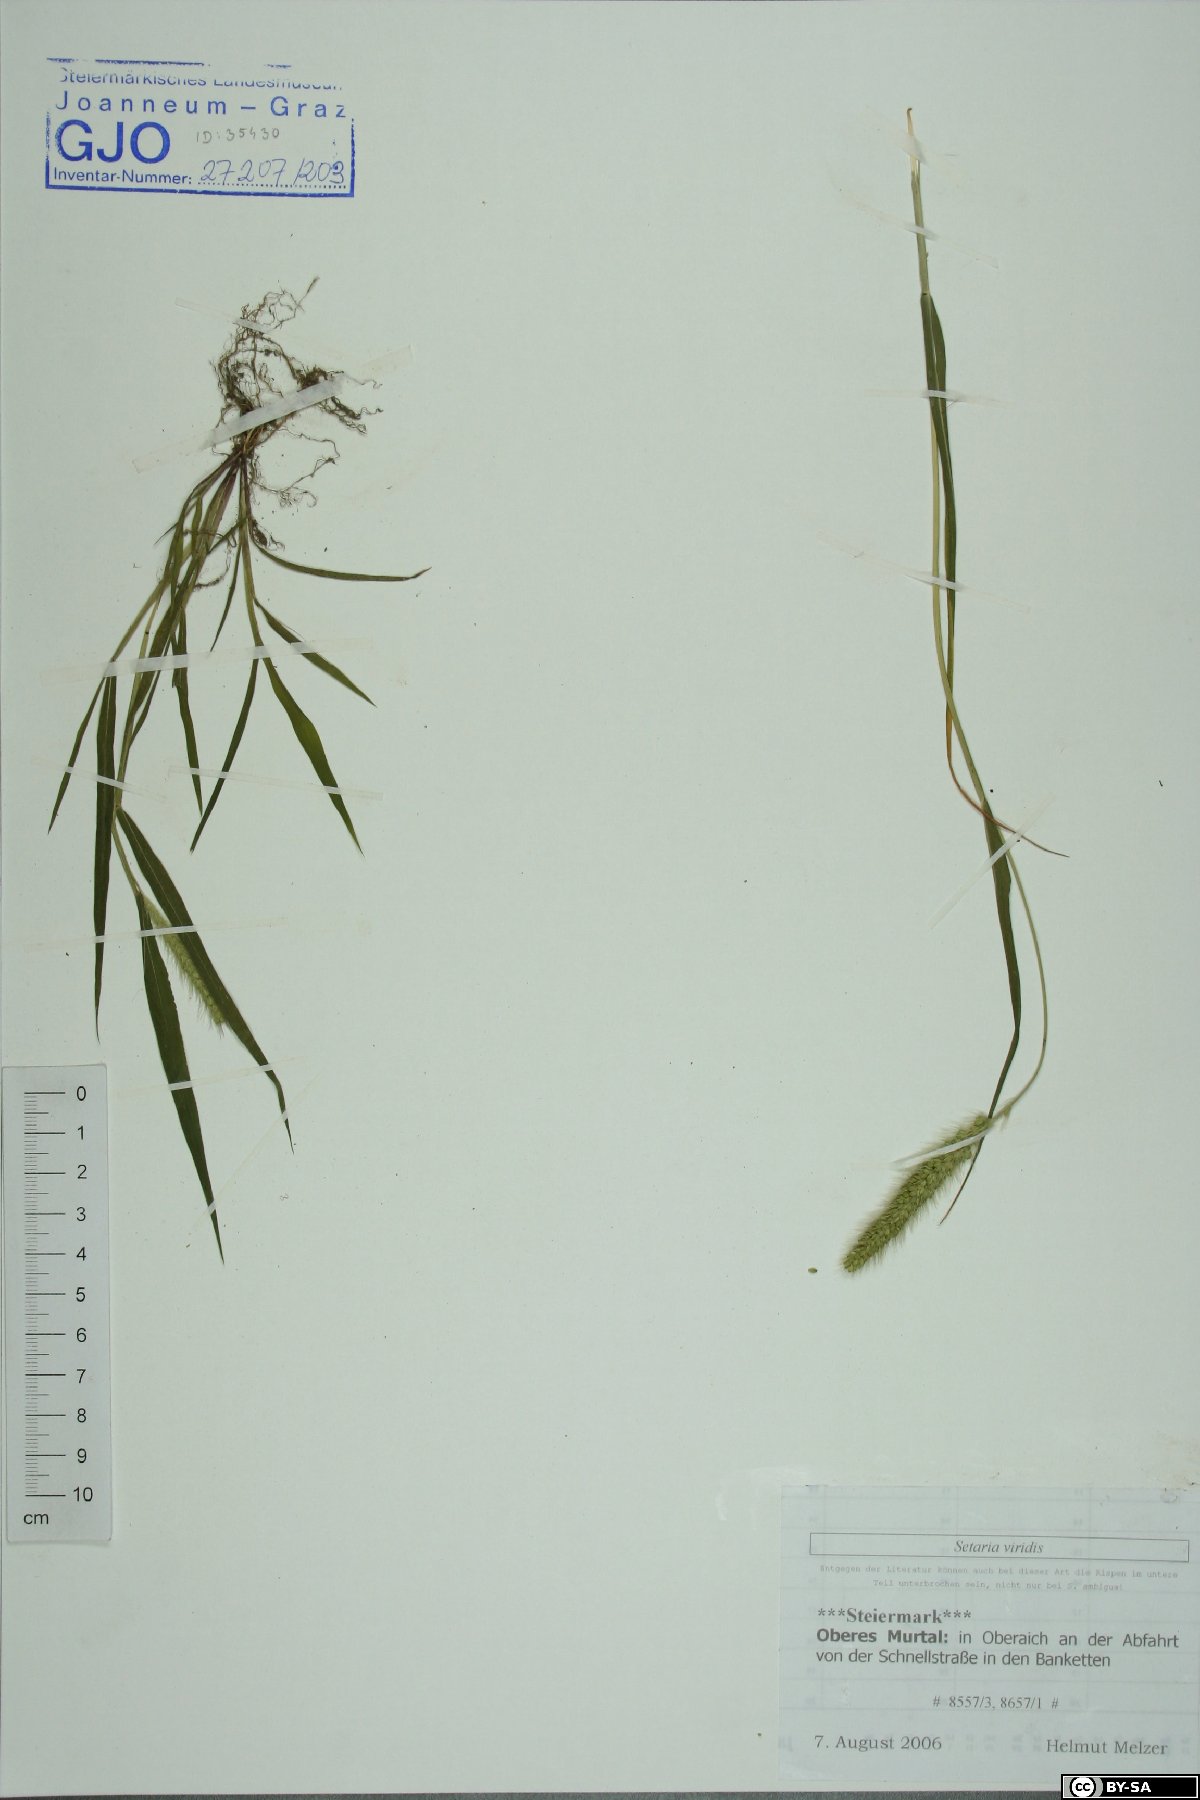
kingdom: Plantae
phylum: Tracheophyta
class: Liliopsida
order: Poales
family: Poaceae
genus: Setaria
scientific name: Setaria viridis
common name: Green bristlegrass
